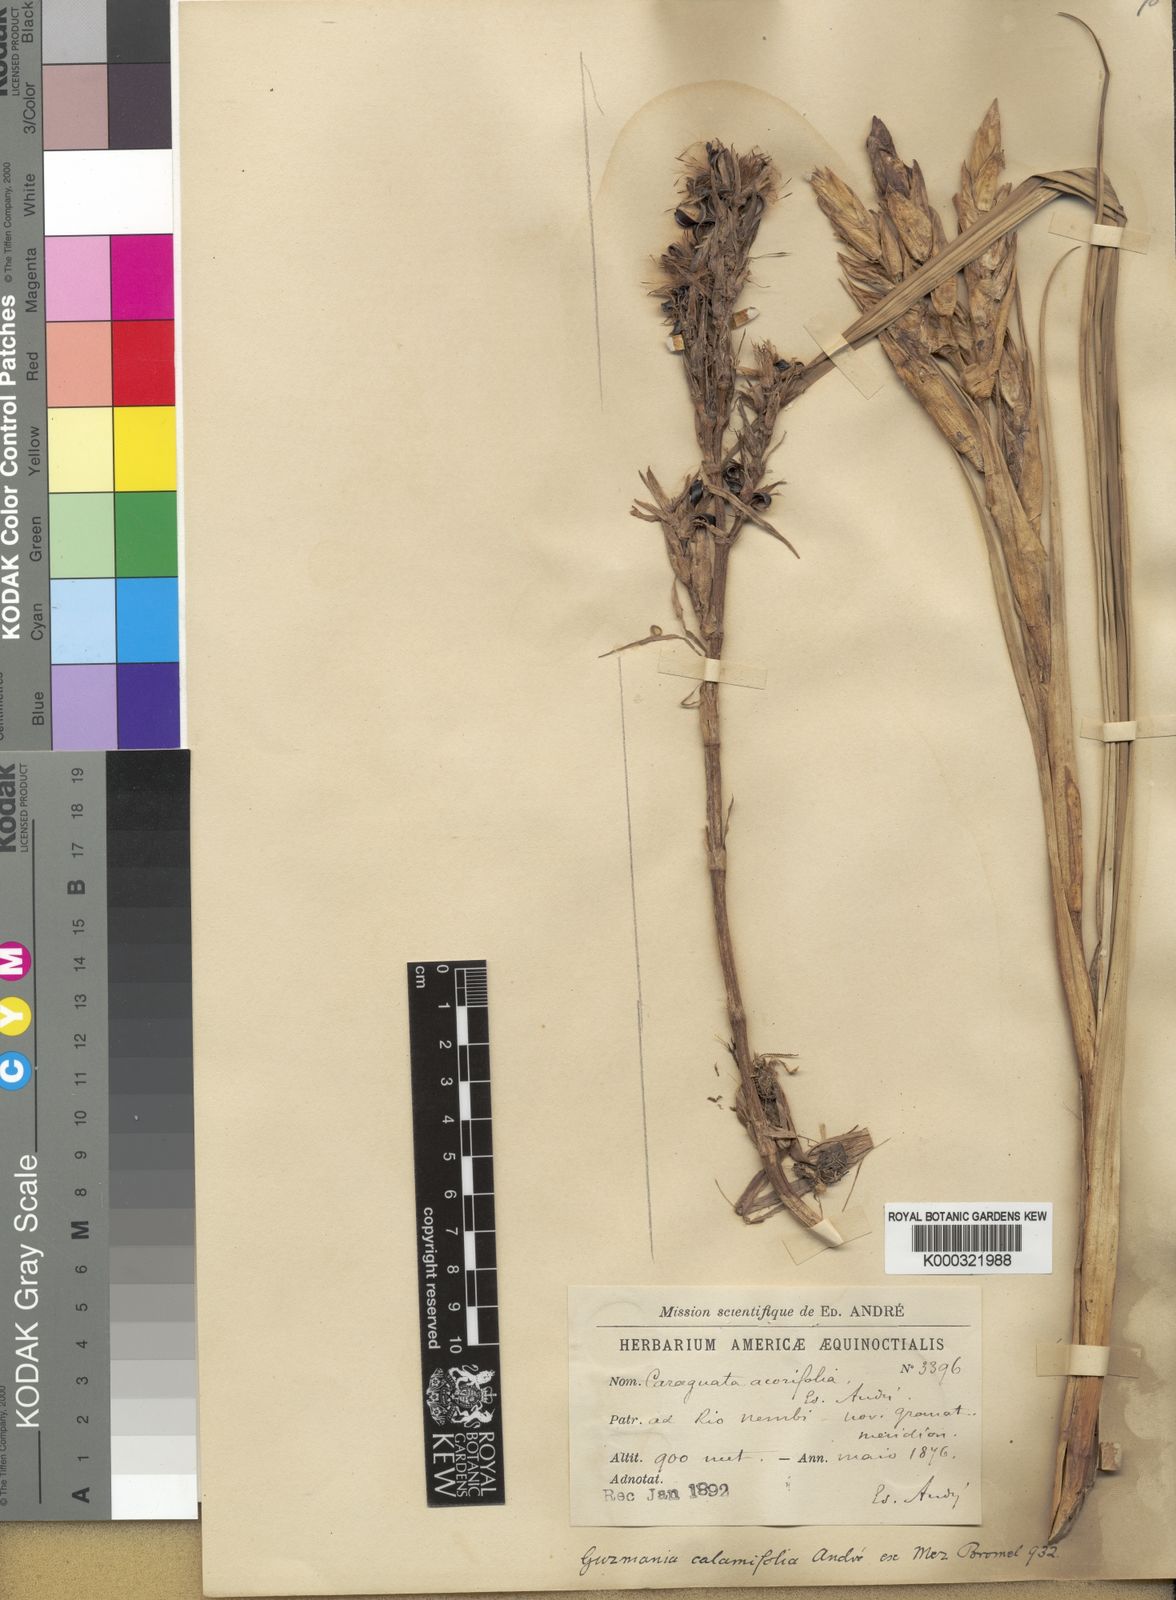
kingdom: Plantae
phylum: Tracheophyta
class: Liliopsida
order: Poales
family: Bromeliaceae
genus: Guzmania
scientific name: Guzmania calamifolia
